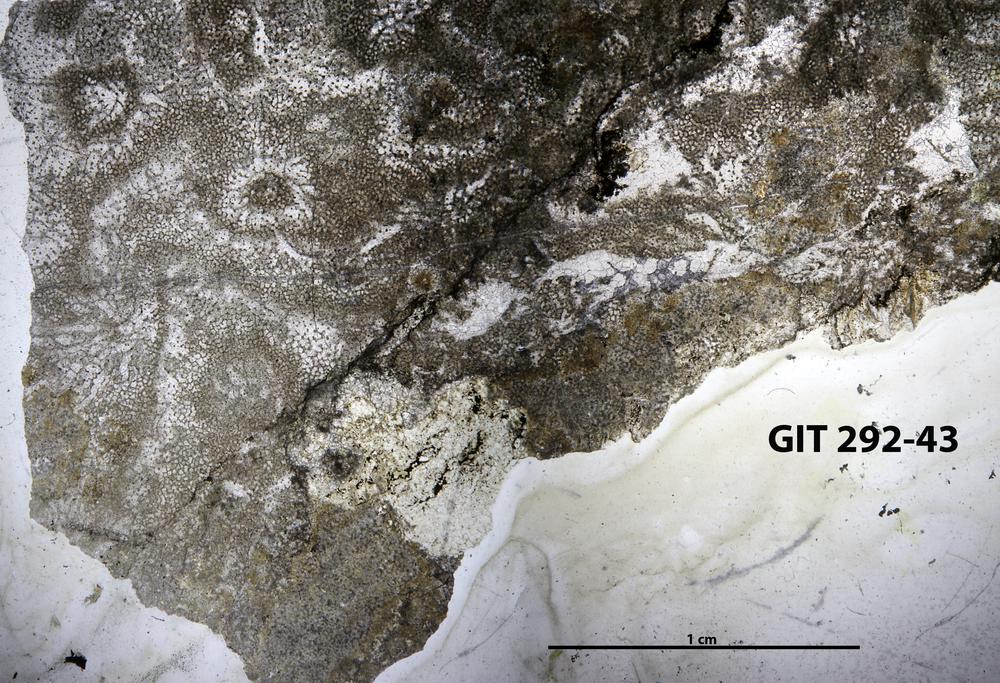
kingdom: Animalia
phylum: Porifera
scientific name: Porifera
